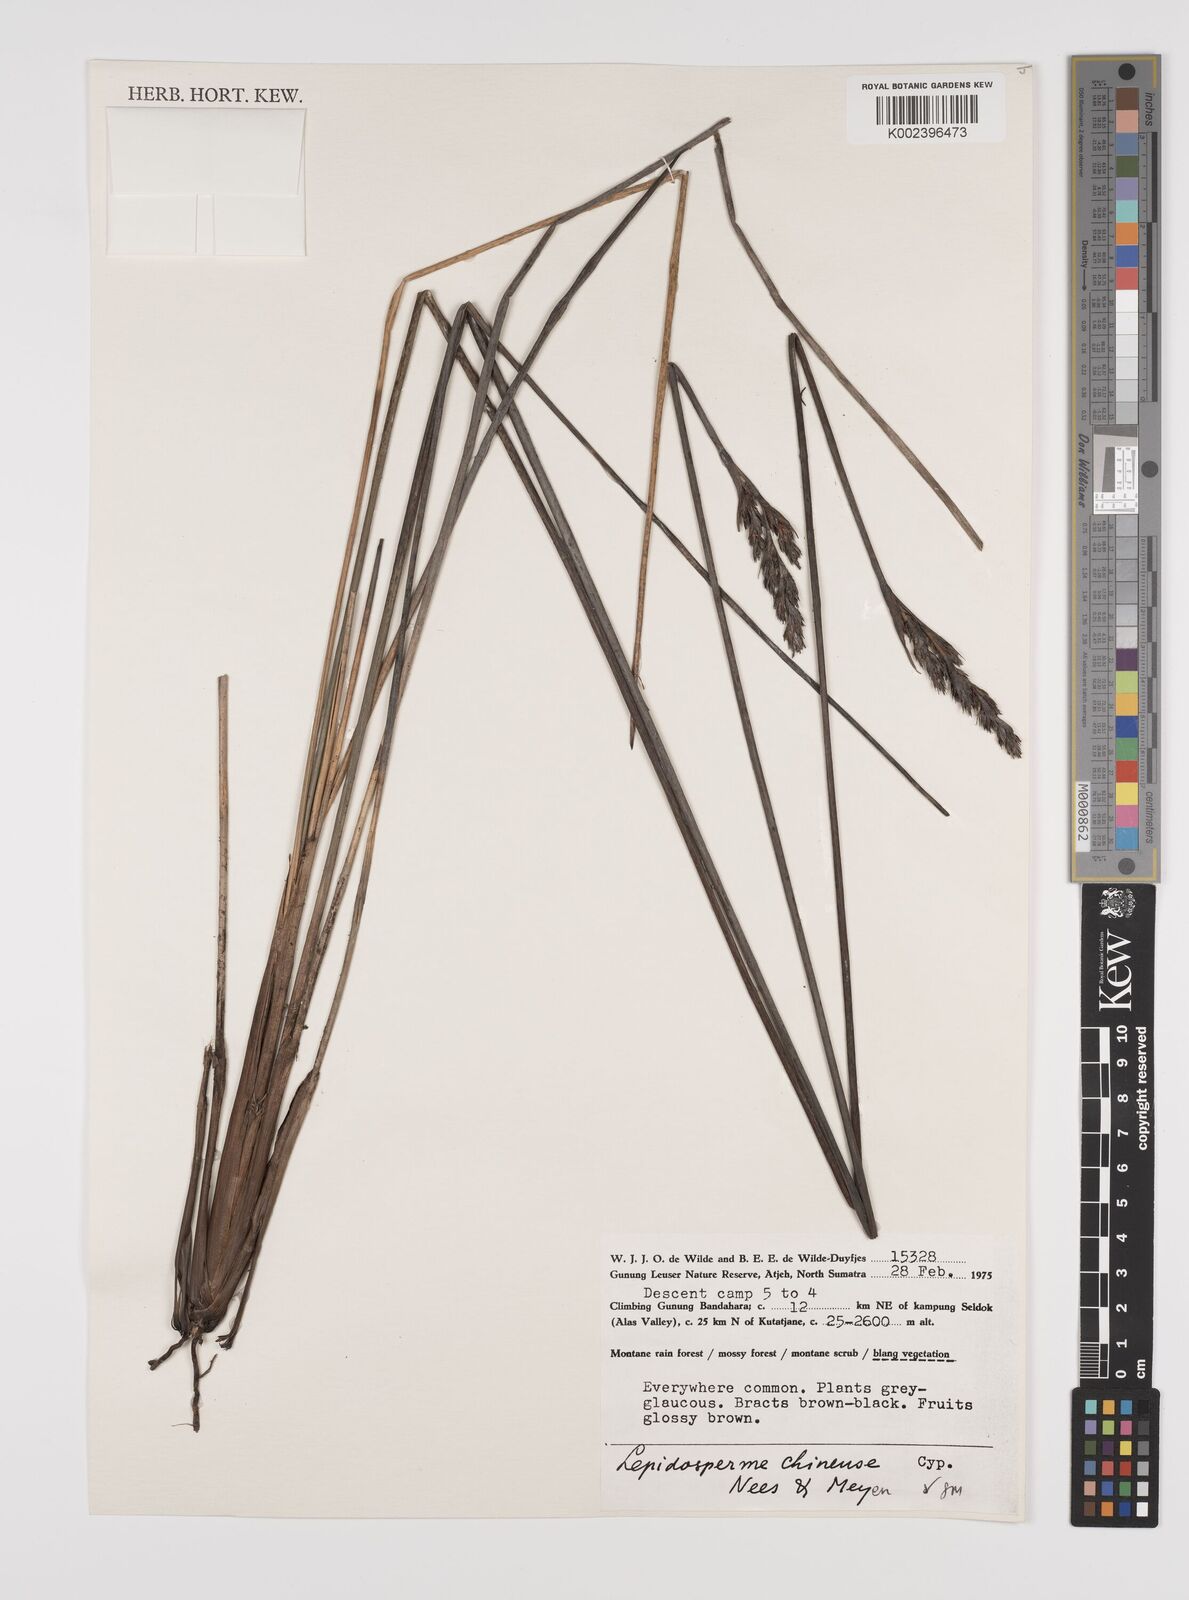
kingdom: Plantae
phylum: Tracheophyta
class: Liliopsida
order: Poales
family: Cyperaceae
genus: Lepidosperma
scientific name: Lepidosperma chinense
